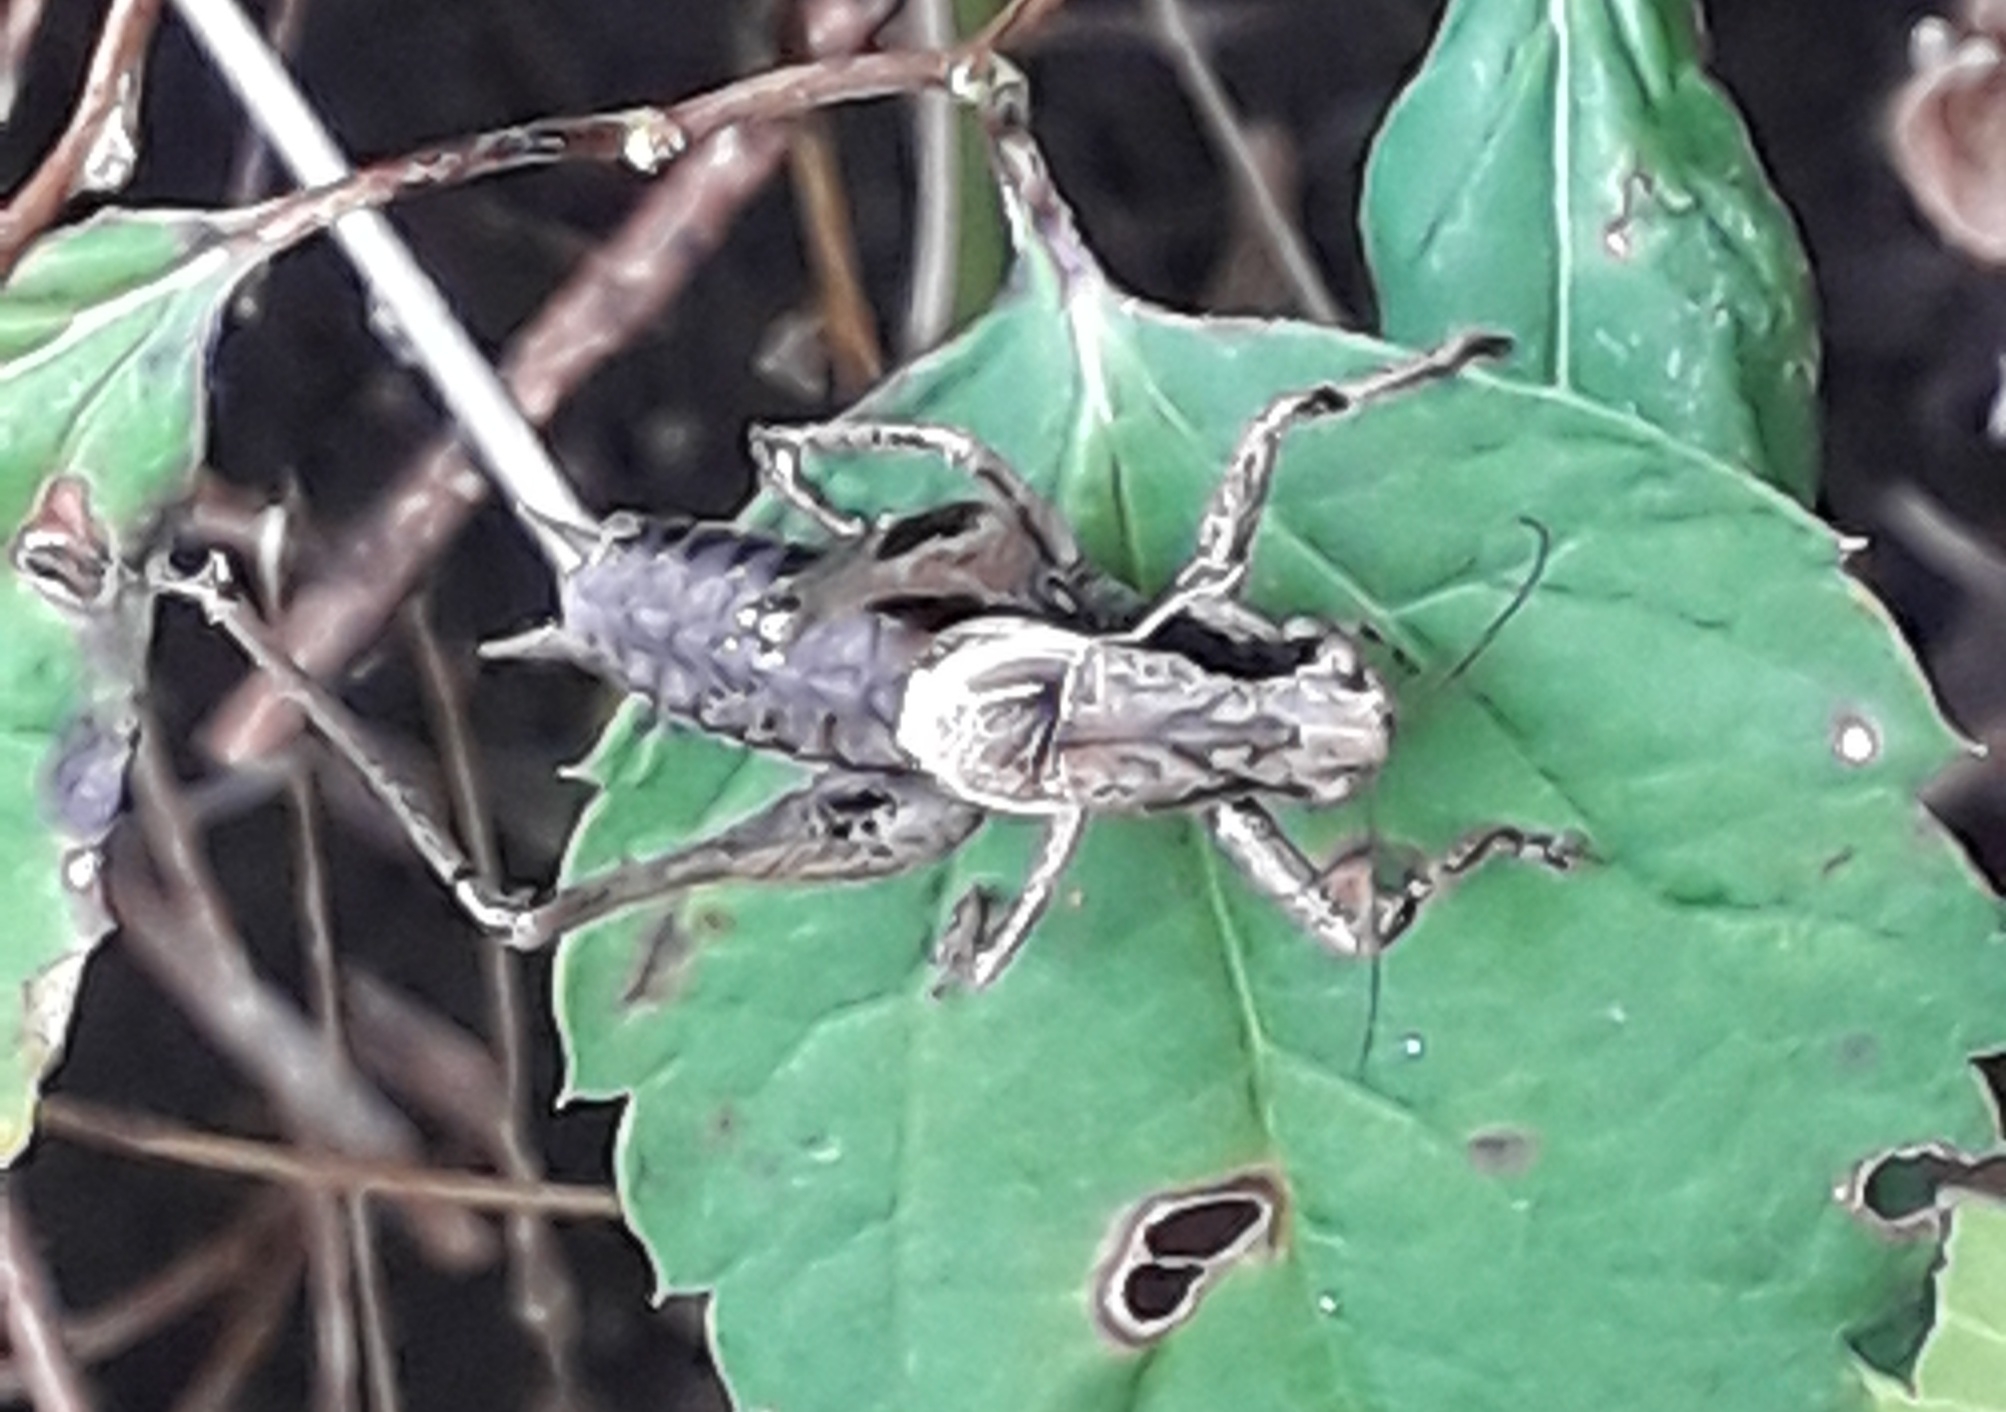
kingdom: Animalia
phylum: Arthropoda
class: Insecta
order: Orthoptera
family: Tettigoniidae
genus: Pholidoptera
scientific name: Pholidoptera griseoaptera
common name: Buskgræshoppe
